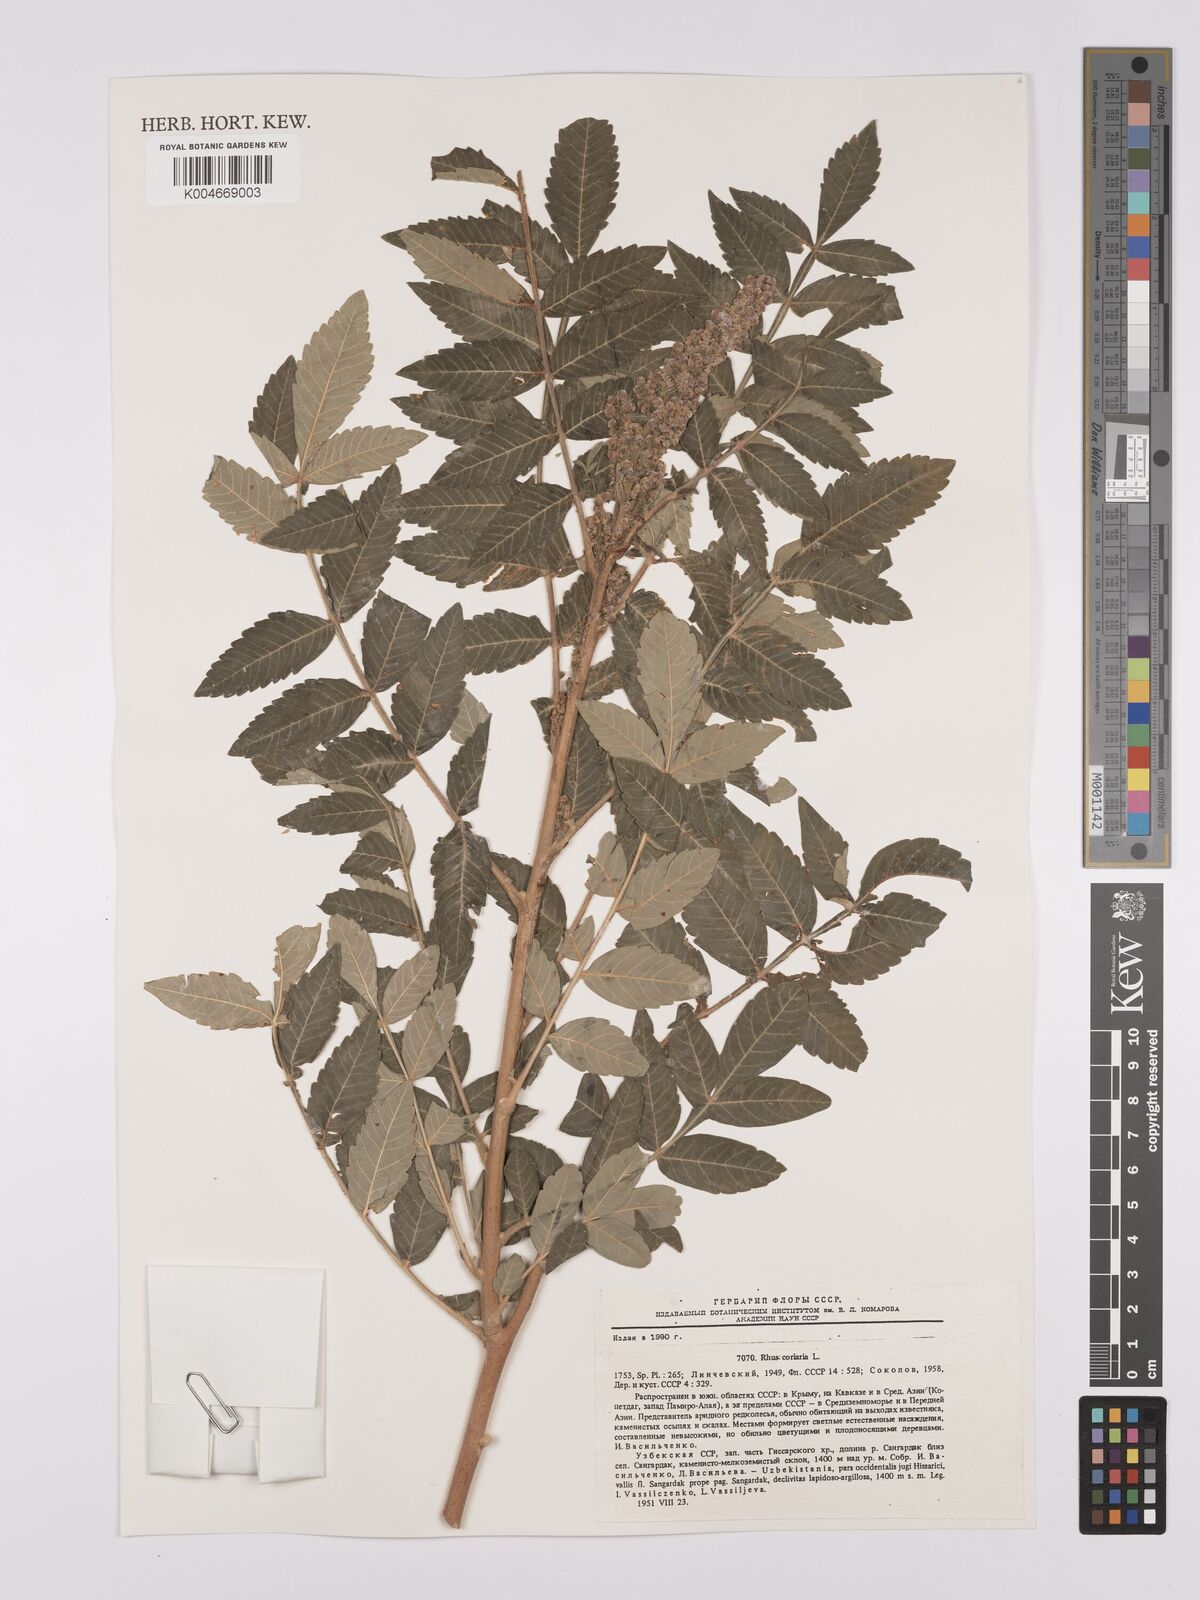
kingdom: Plantae
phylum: Tracheophyta
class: Magnoliopsida
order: Sapindales
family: Anacardiaceae
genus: Rhus
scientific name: Rhus coriaria
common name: Tanner's sumach
